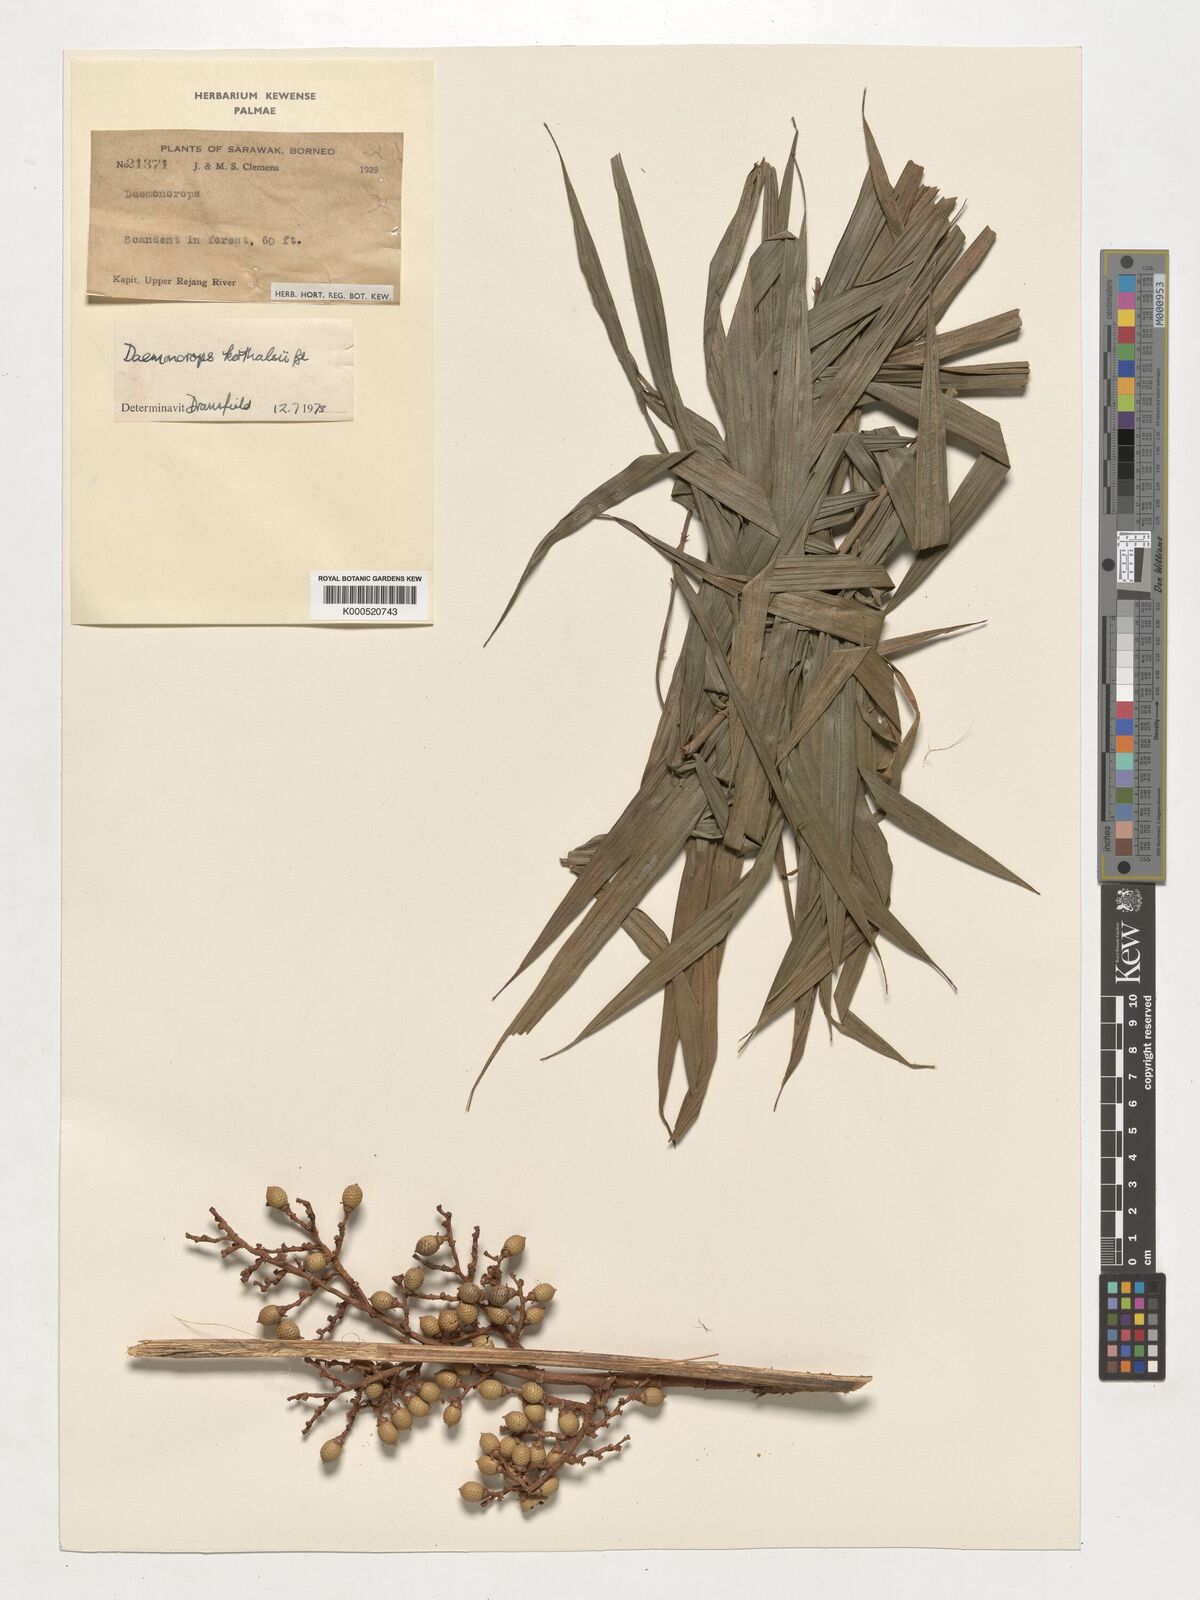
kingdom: Plantae
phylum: Tracheophyta
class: Liliopsida
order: Arecales
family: Arecaceae
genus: Calamus
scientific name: Calamus hirsutus
